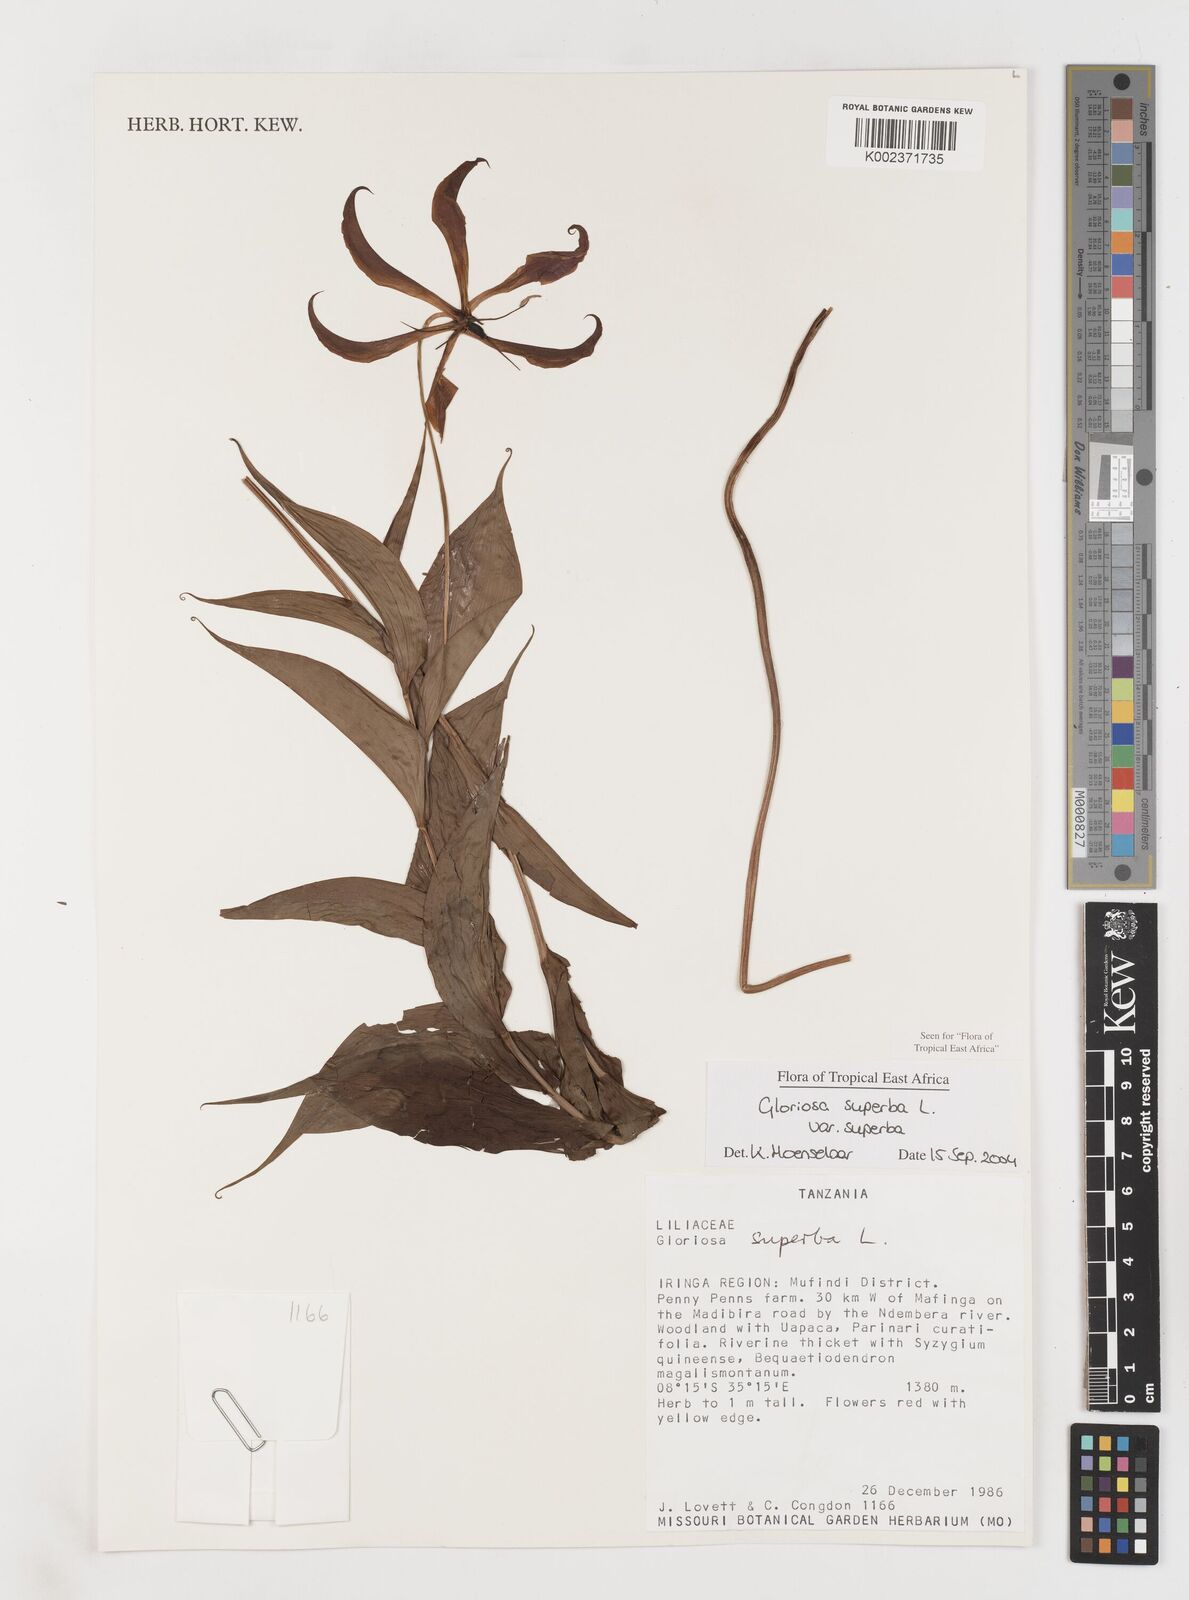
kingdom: Plantae
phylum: Tracheophyta
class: Liliopsida
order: Liliales
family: Colchicaceae
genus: Gloriosa
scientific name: Gloriosa simplex
